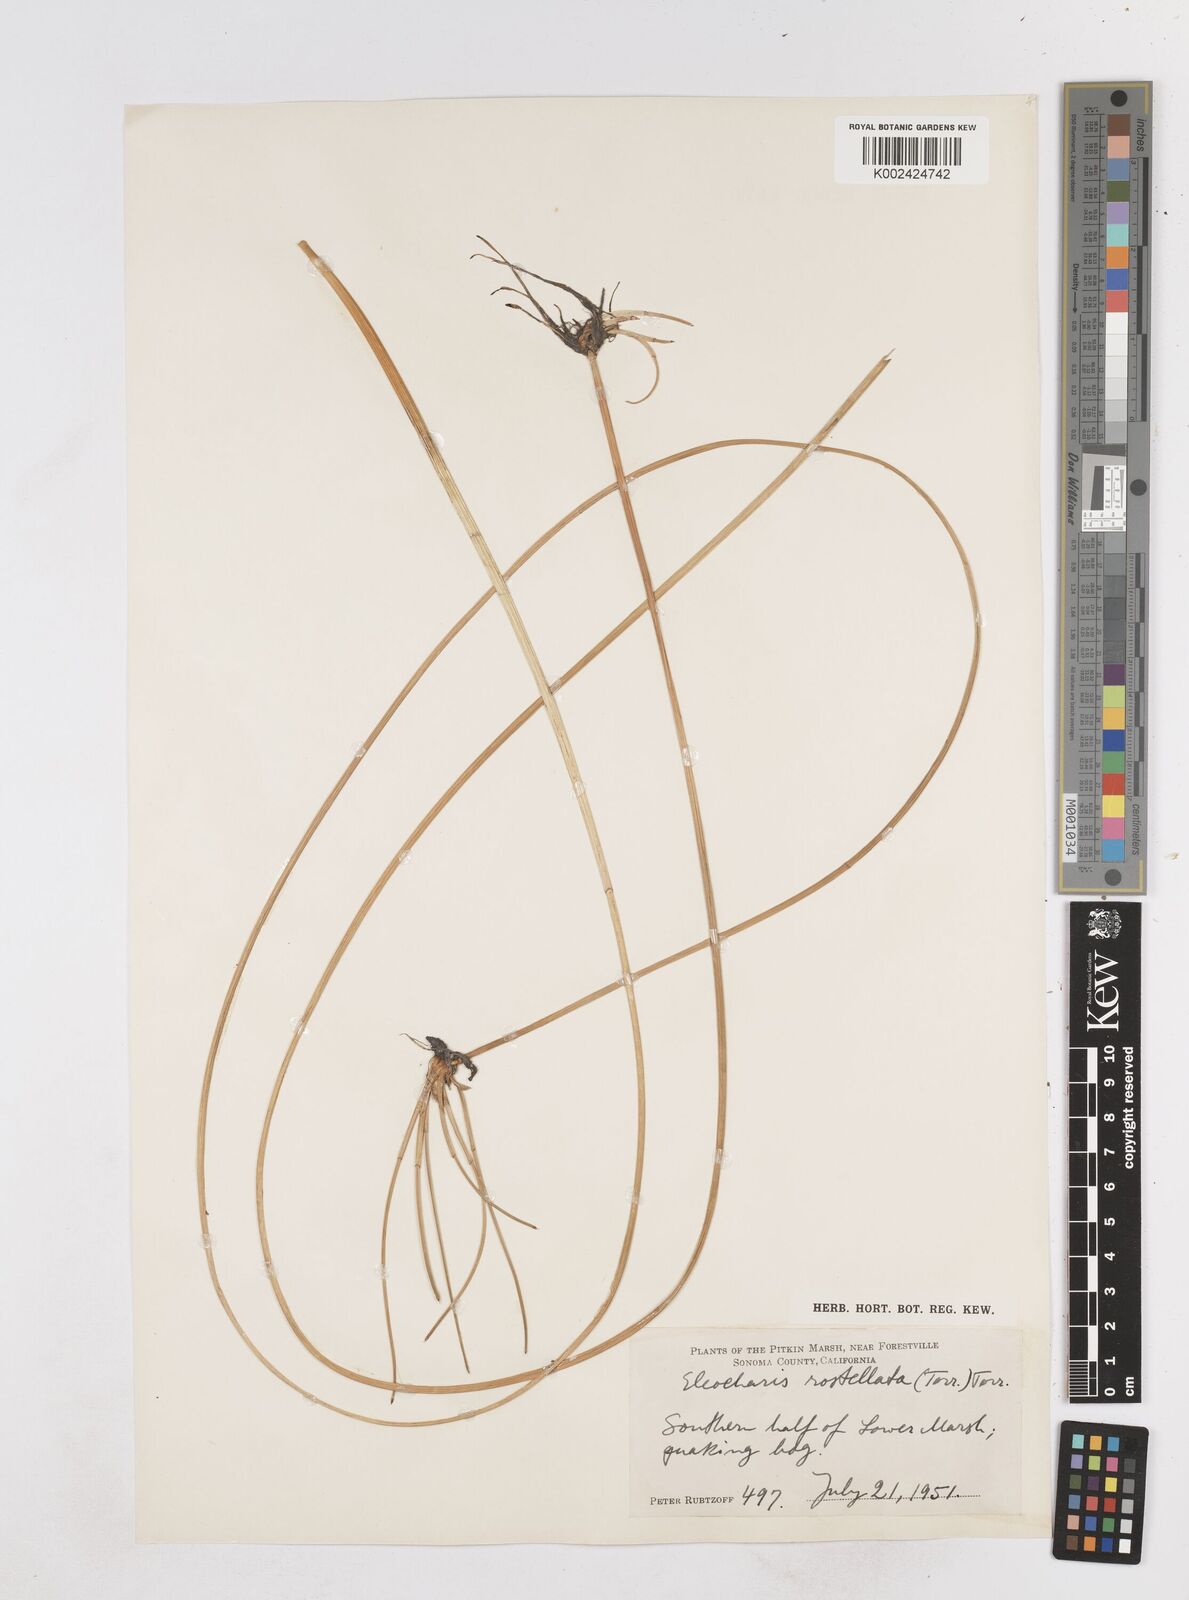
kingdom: Plantae
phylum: Tracheophyta
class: Liliopsida
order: Poales
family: Cyperaceae
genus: Eleocharis
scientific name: Eleocharis rostellata
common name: Walking sedge
